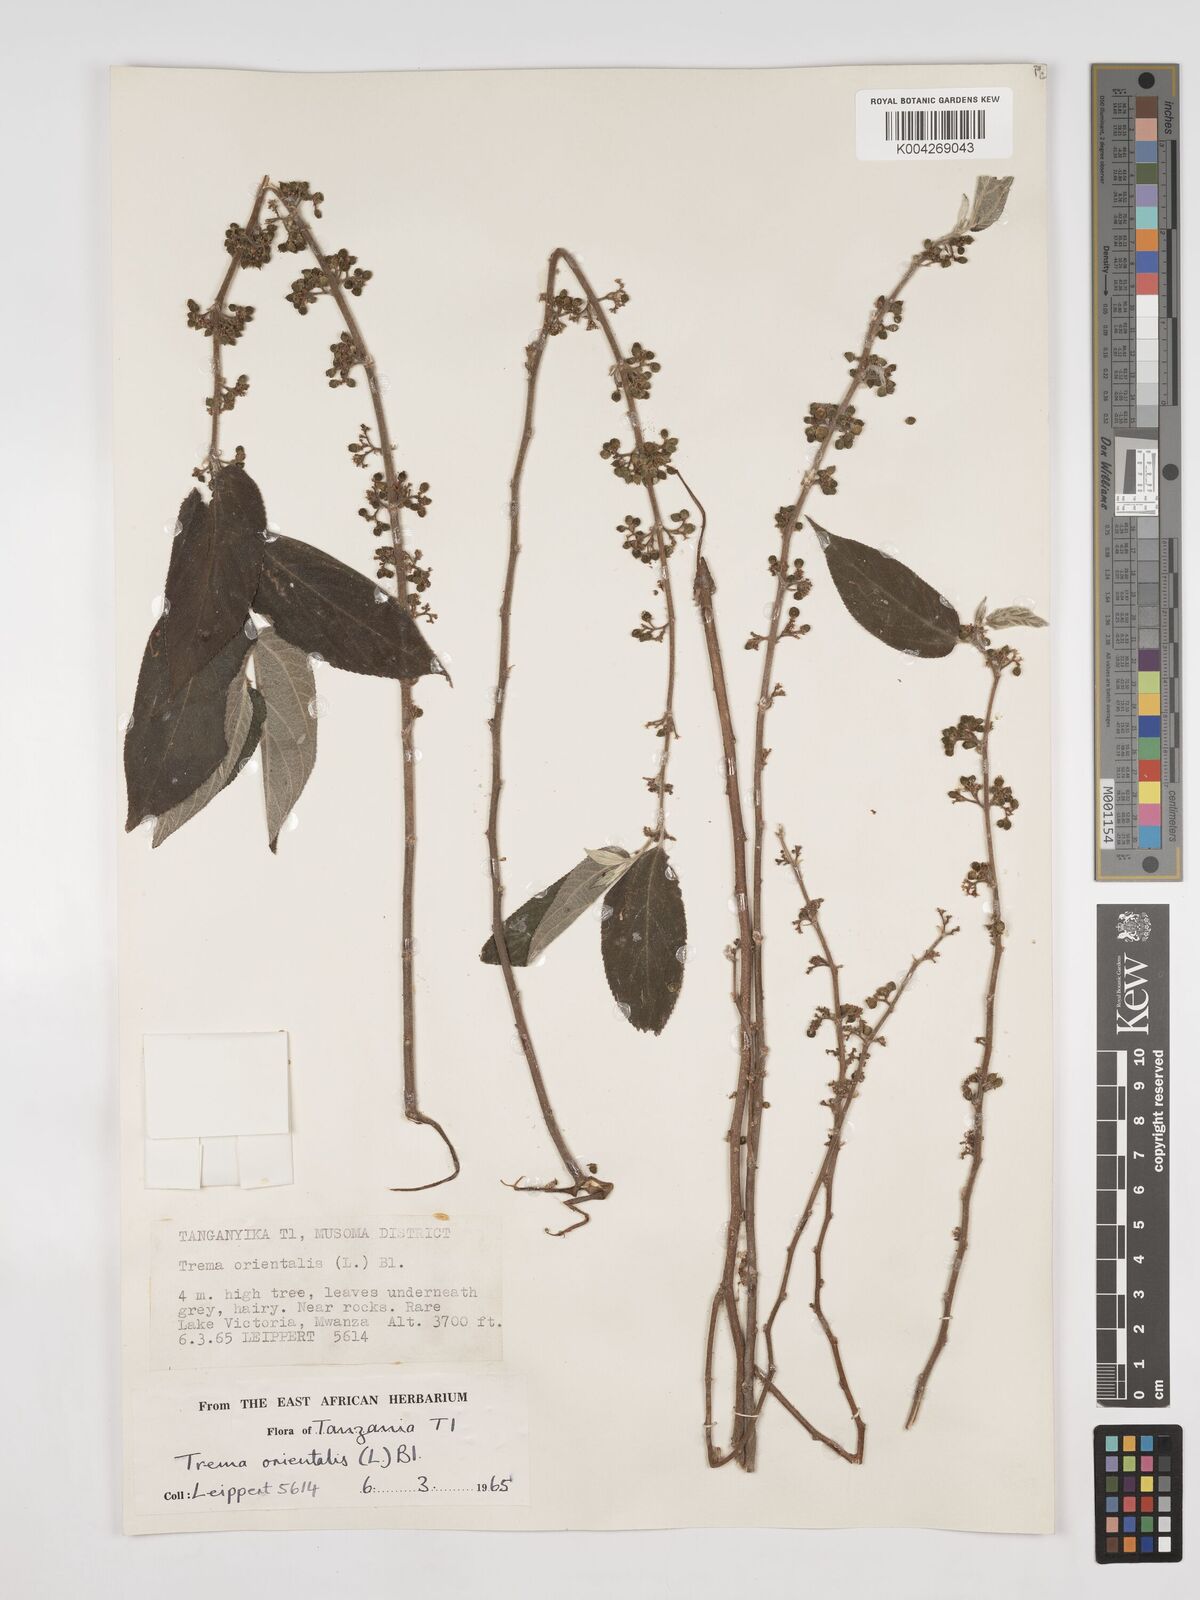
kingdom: Plantae
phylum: Tracheophyta
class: Magnoliopsida
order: Rosales
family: Cannabaceae
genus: Trema
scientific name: Trema orientale
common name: Indian charcoal tree
